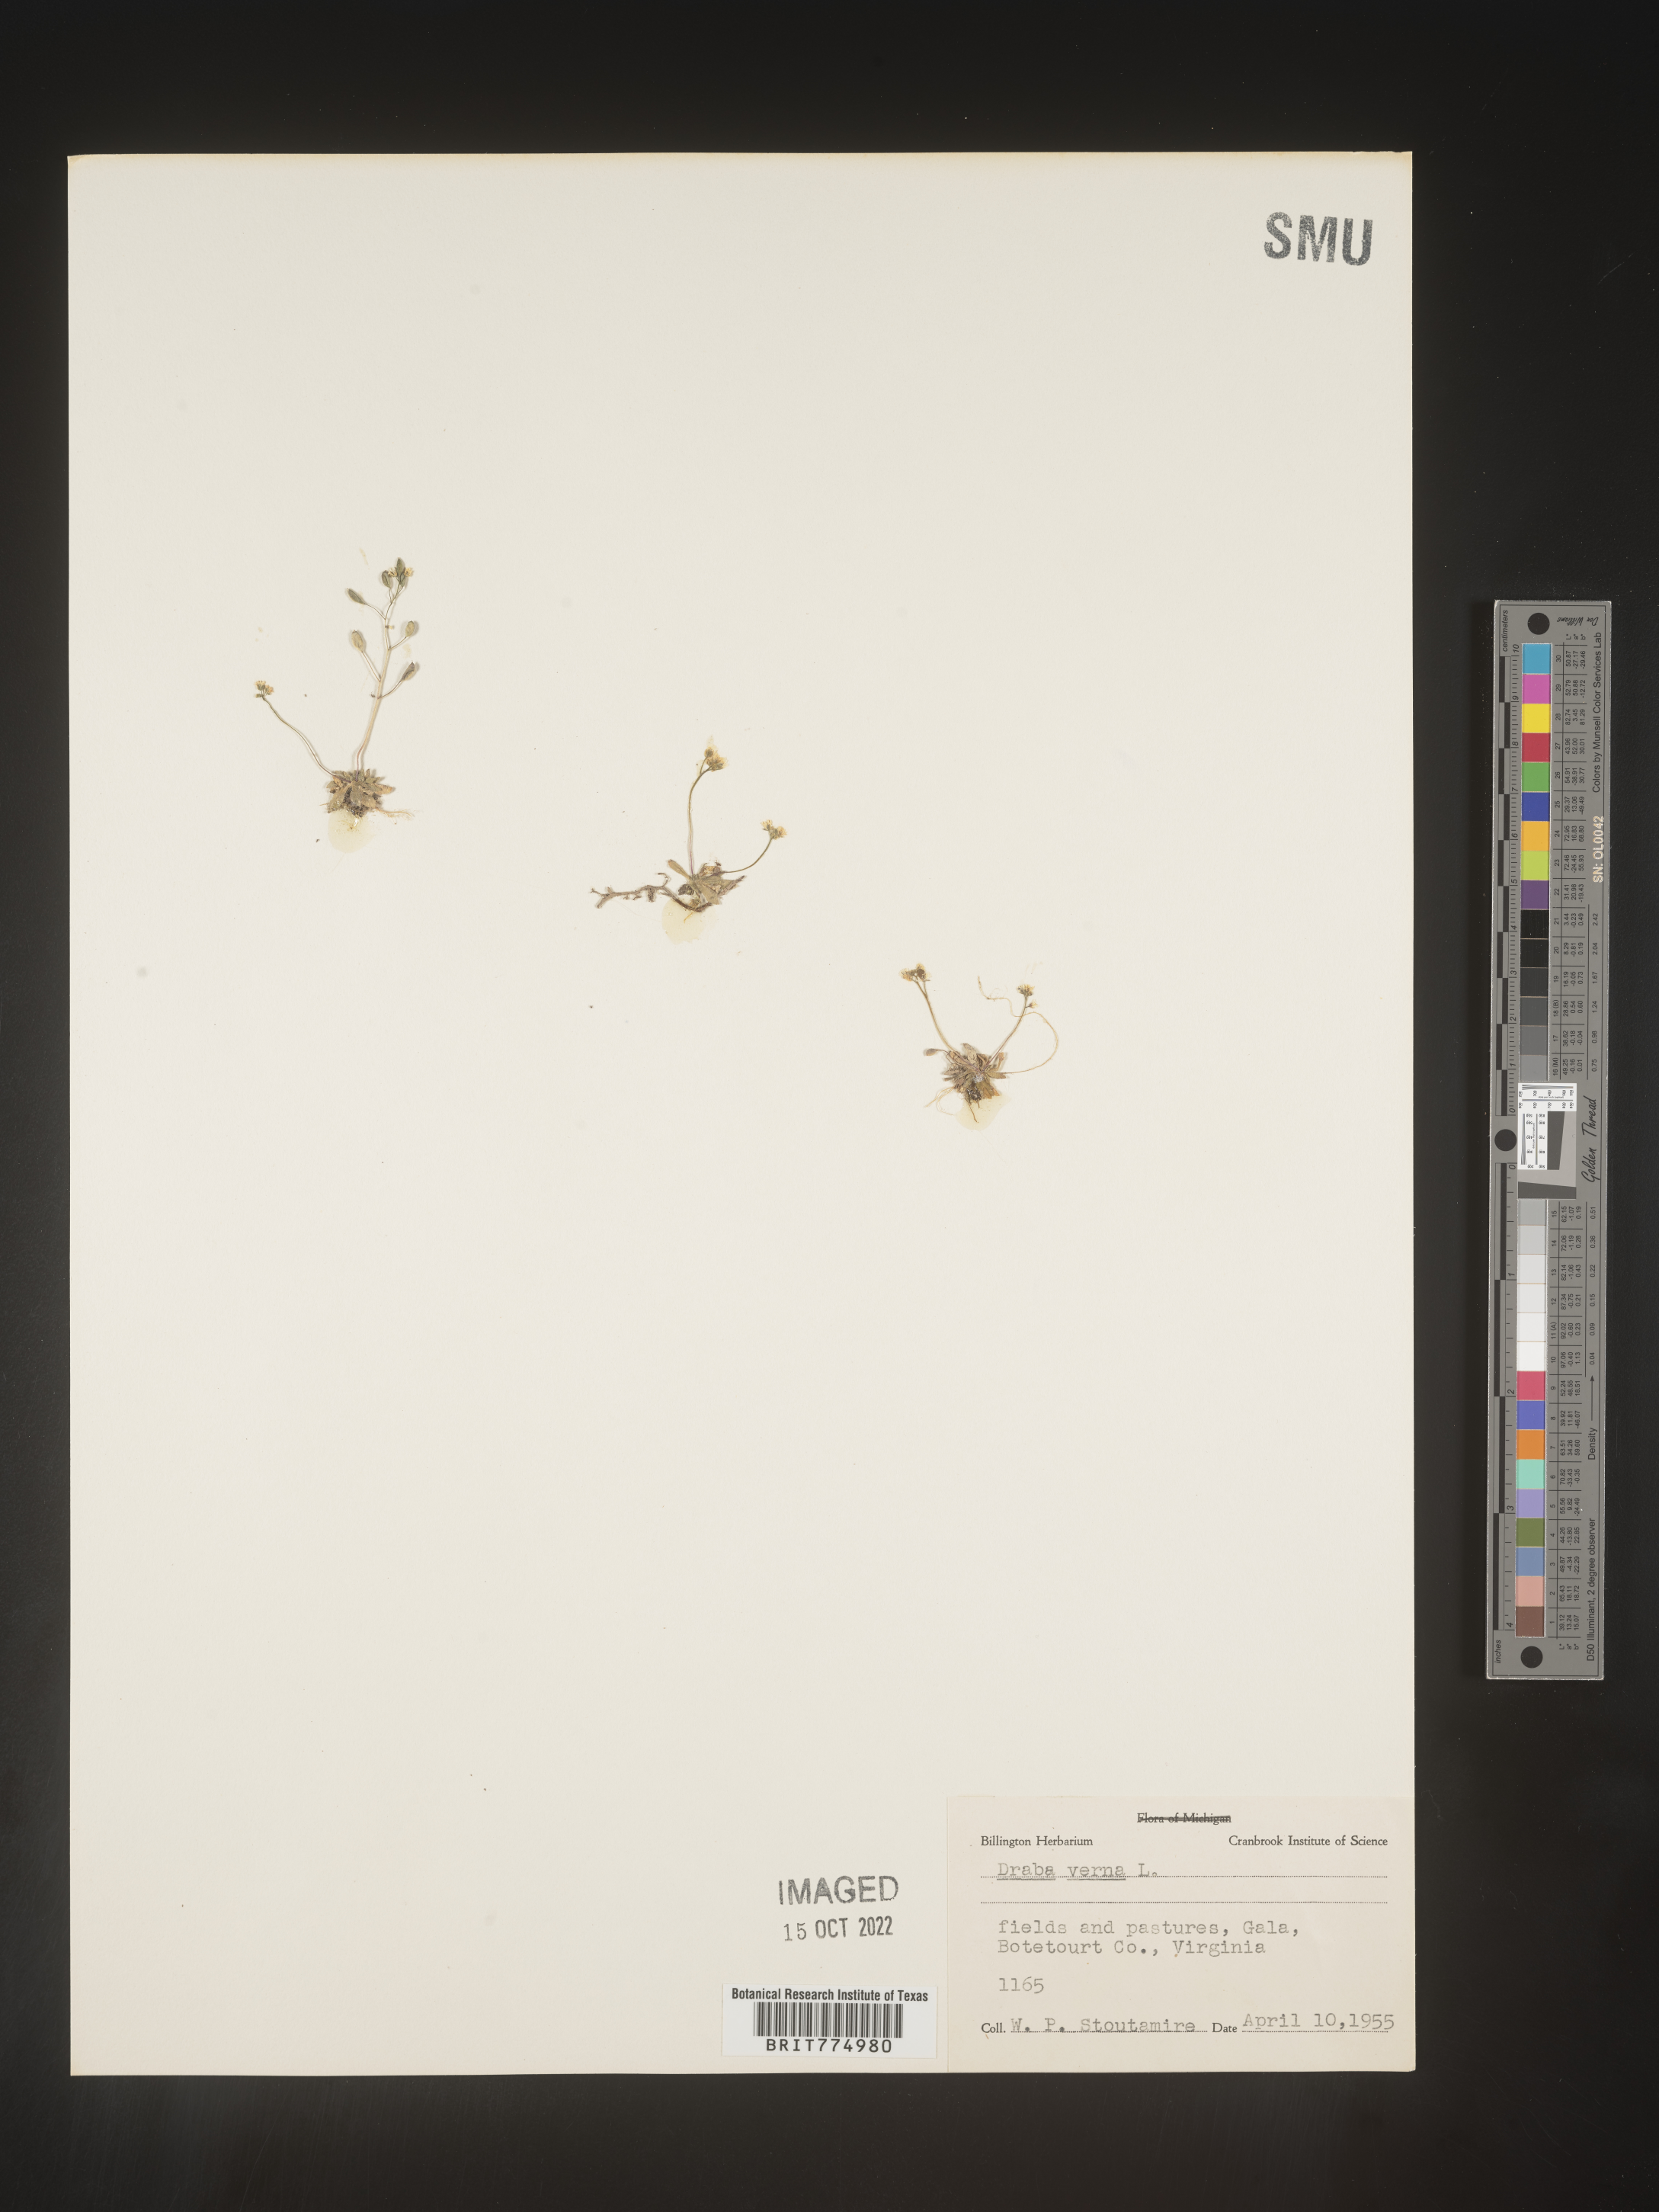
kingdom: Plantae
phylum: Tracheophyta
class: Magnoliopsida
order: Brassicales
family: Brassicaceae
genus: Draba
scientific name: Draba verna
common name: Spring draba
